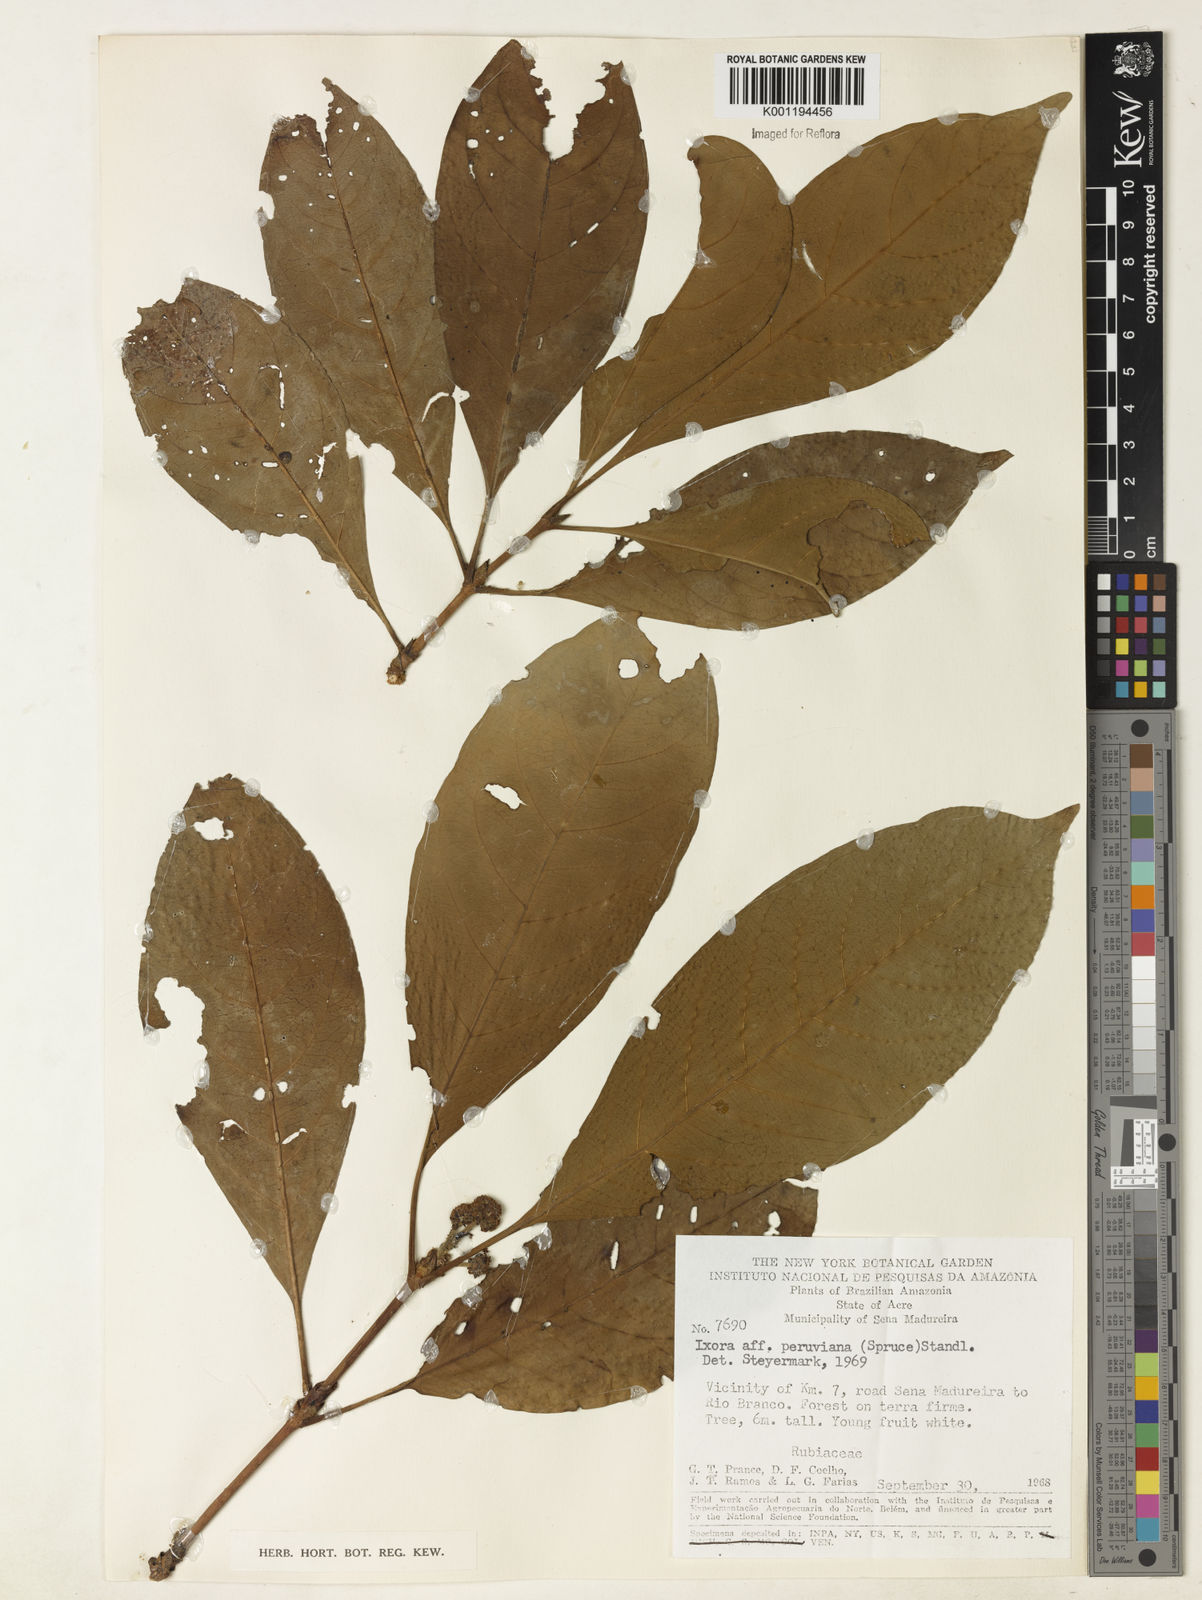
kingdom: Plantae
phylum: Tracheophyta
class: Magnoliopsida
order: Gentianales
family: Rubiaceae
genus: Ixora
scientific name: Ixora peruviana
